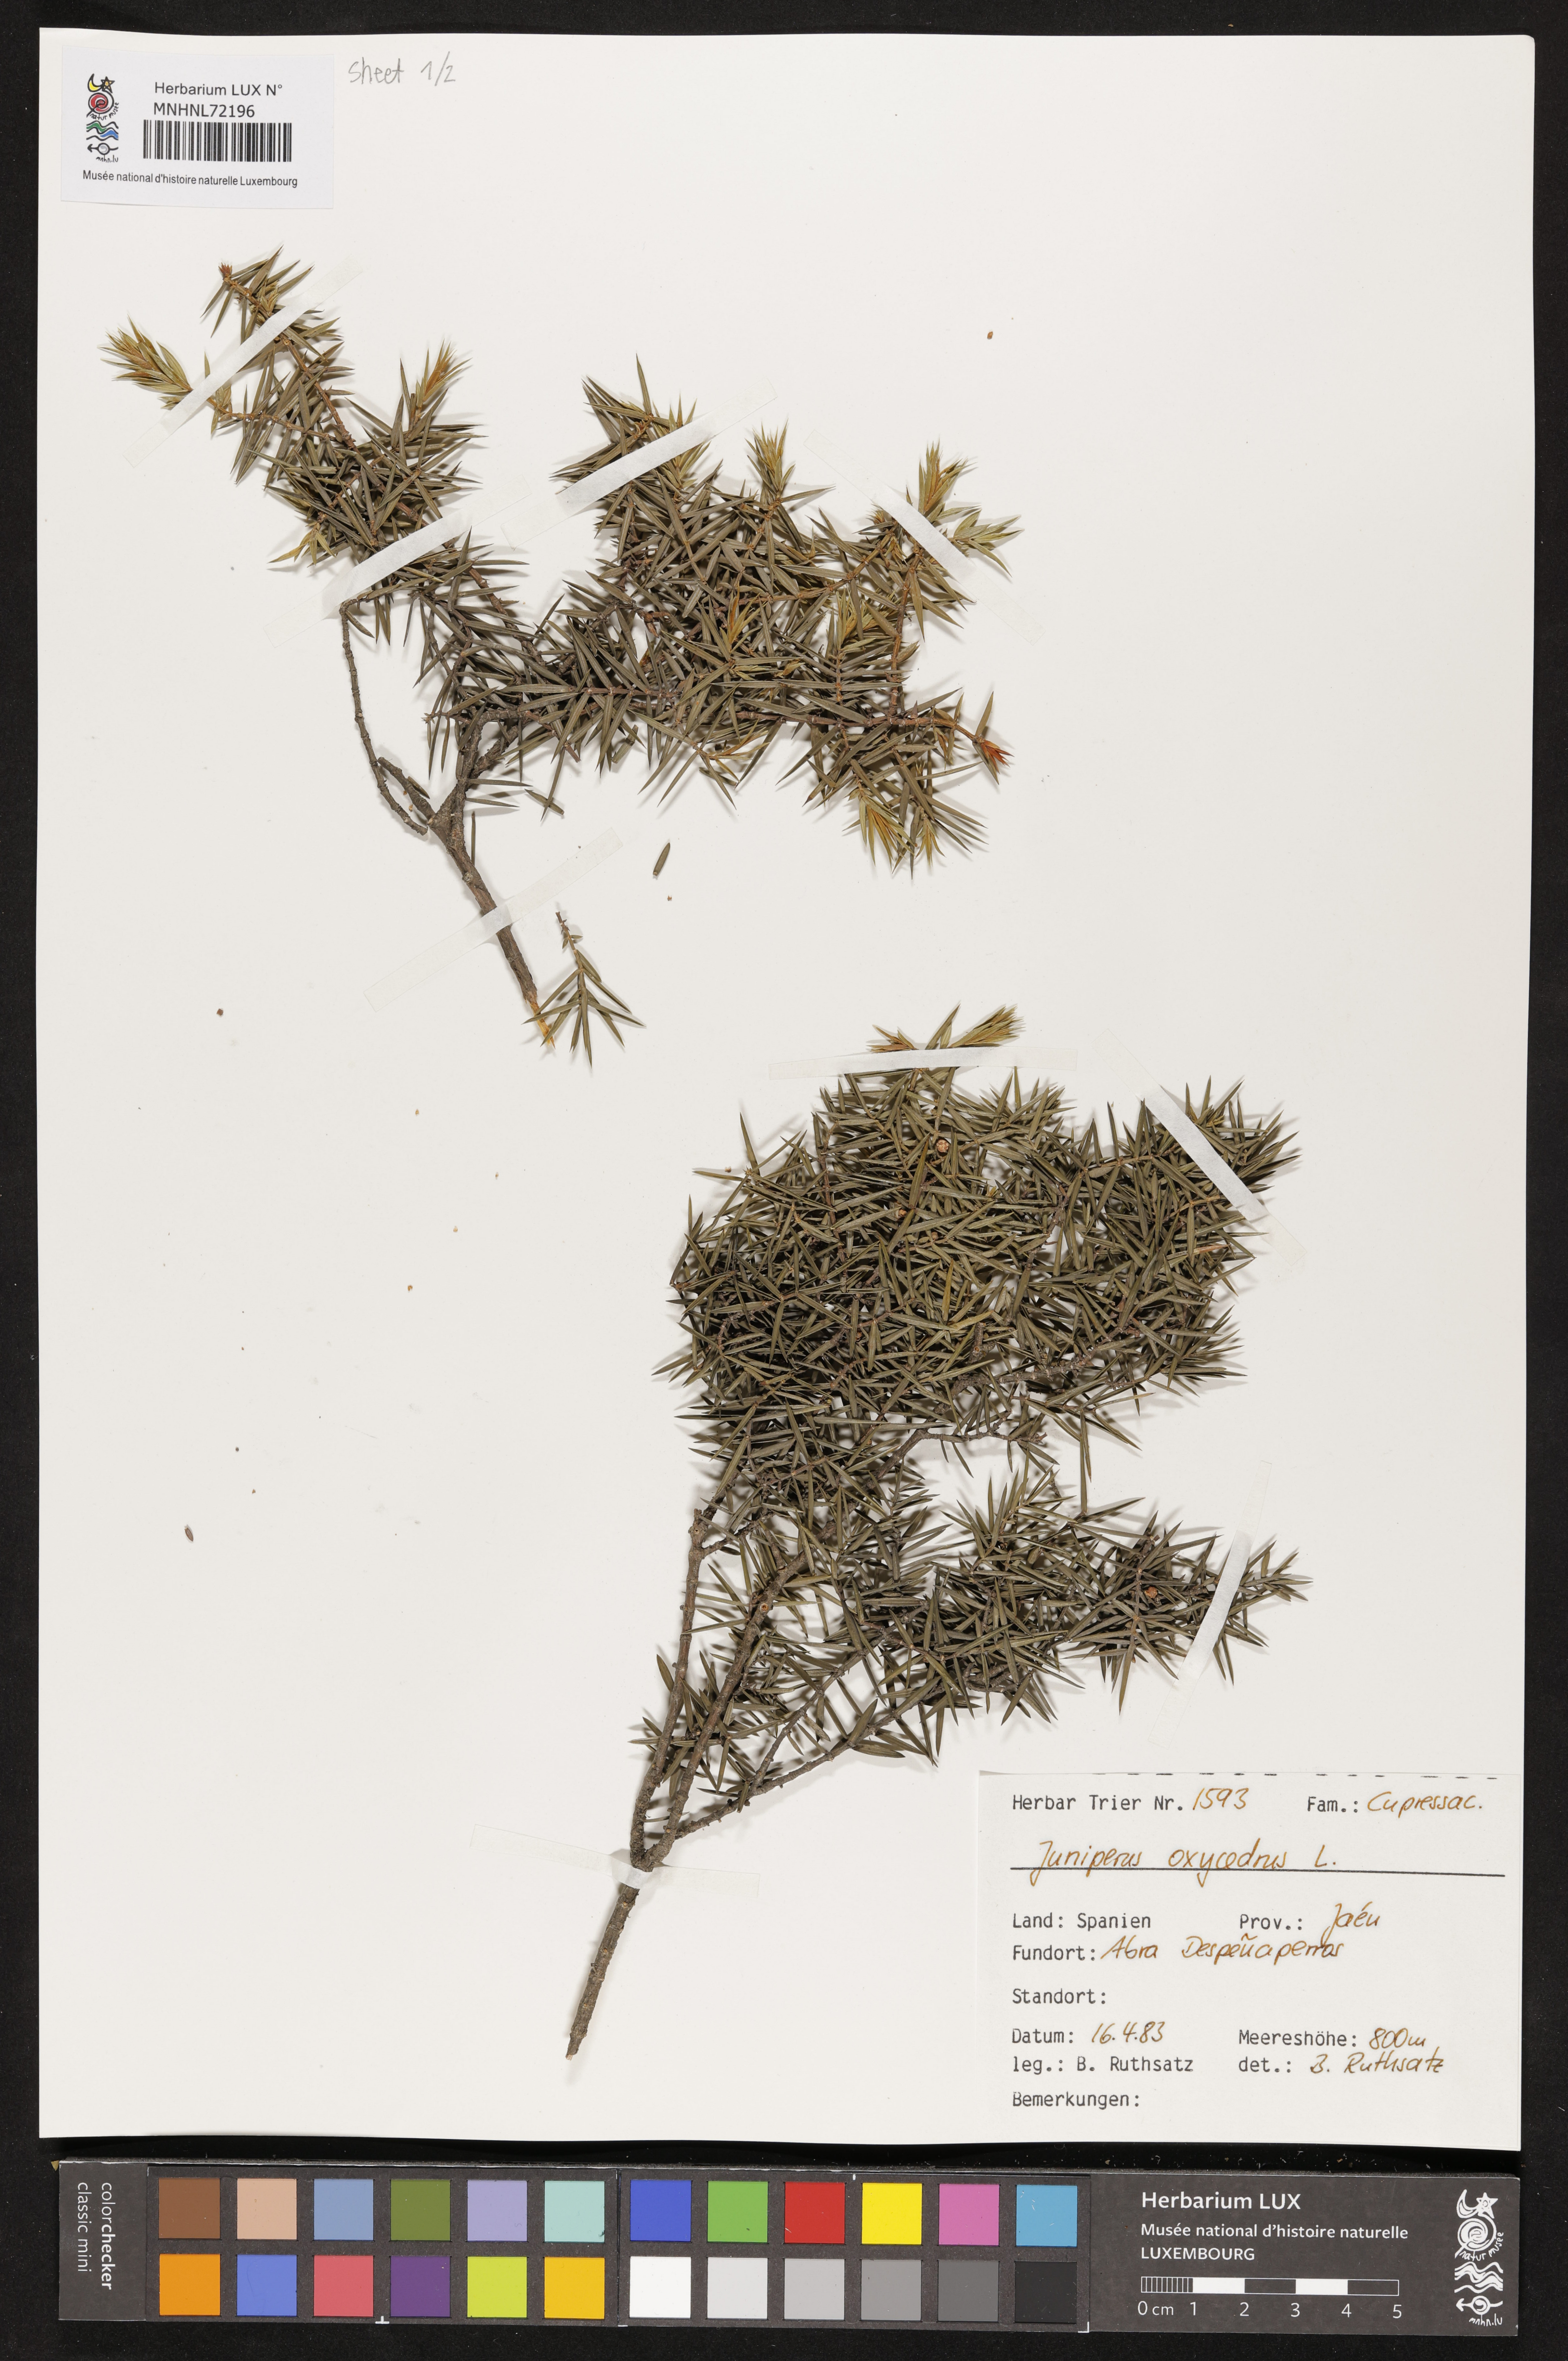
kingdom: Plantae
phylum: Tracheophyta
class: Pinopsida
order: Pinales
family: Cupressaceae
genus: Juniperus
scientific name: Juniperus oxycedrus
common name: Prickly juniper
